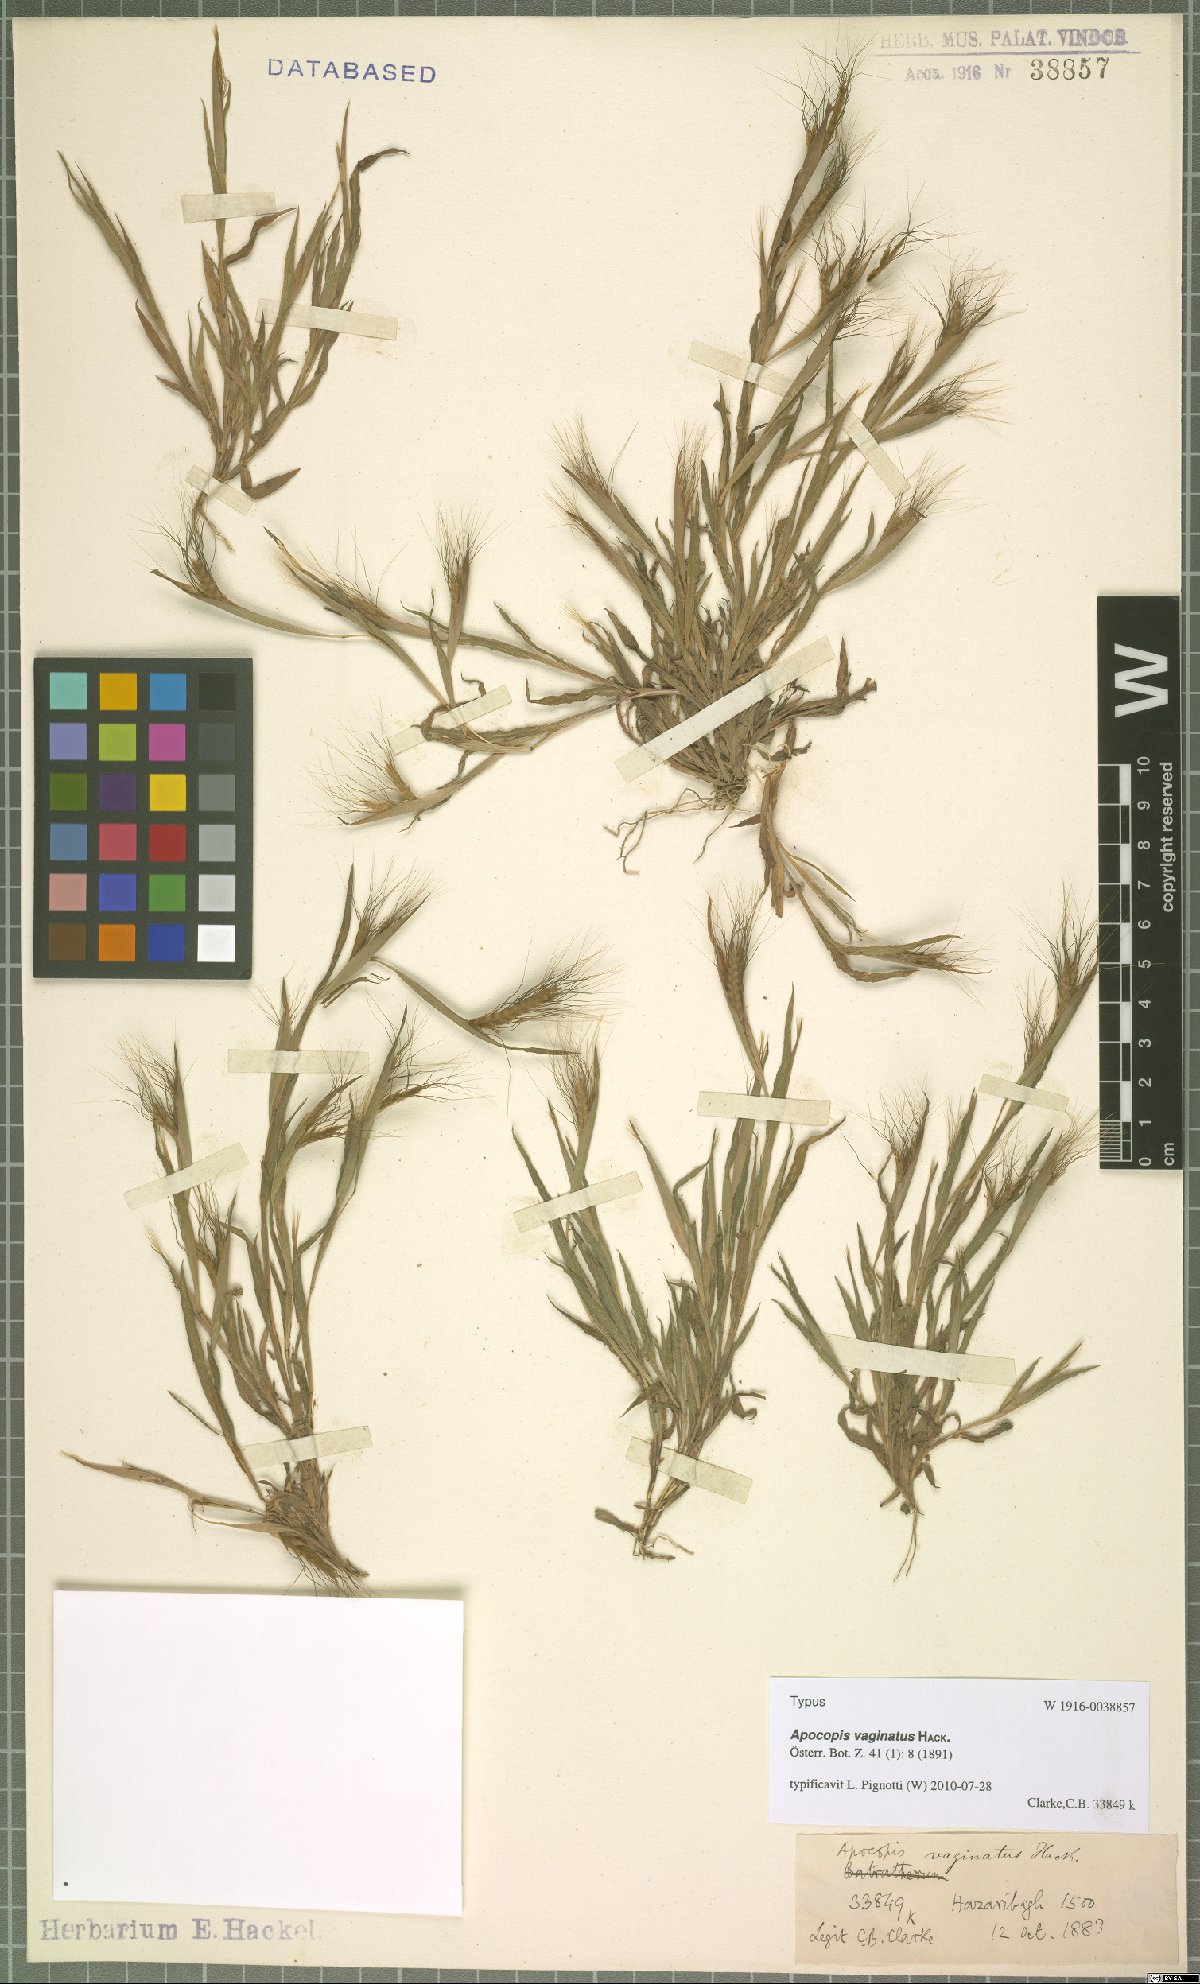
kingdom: Plantae
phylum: Tracheophyta
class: Liliopsida
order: Poales
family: Poaceae
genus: Apocopis
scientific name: Apocopis vaginatus
